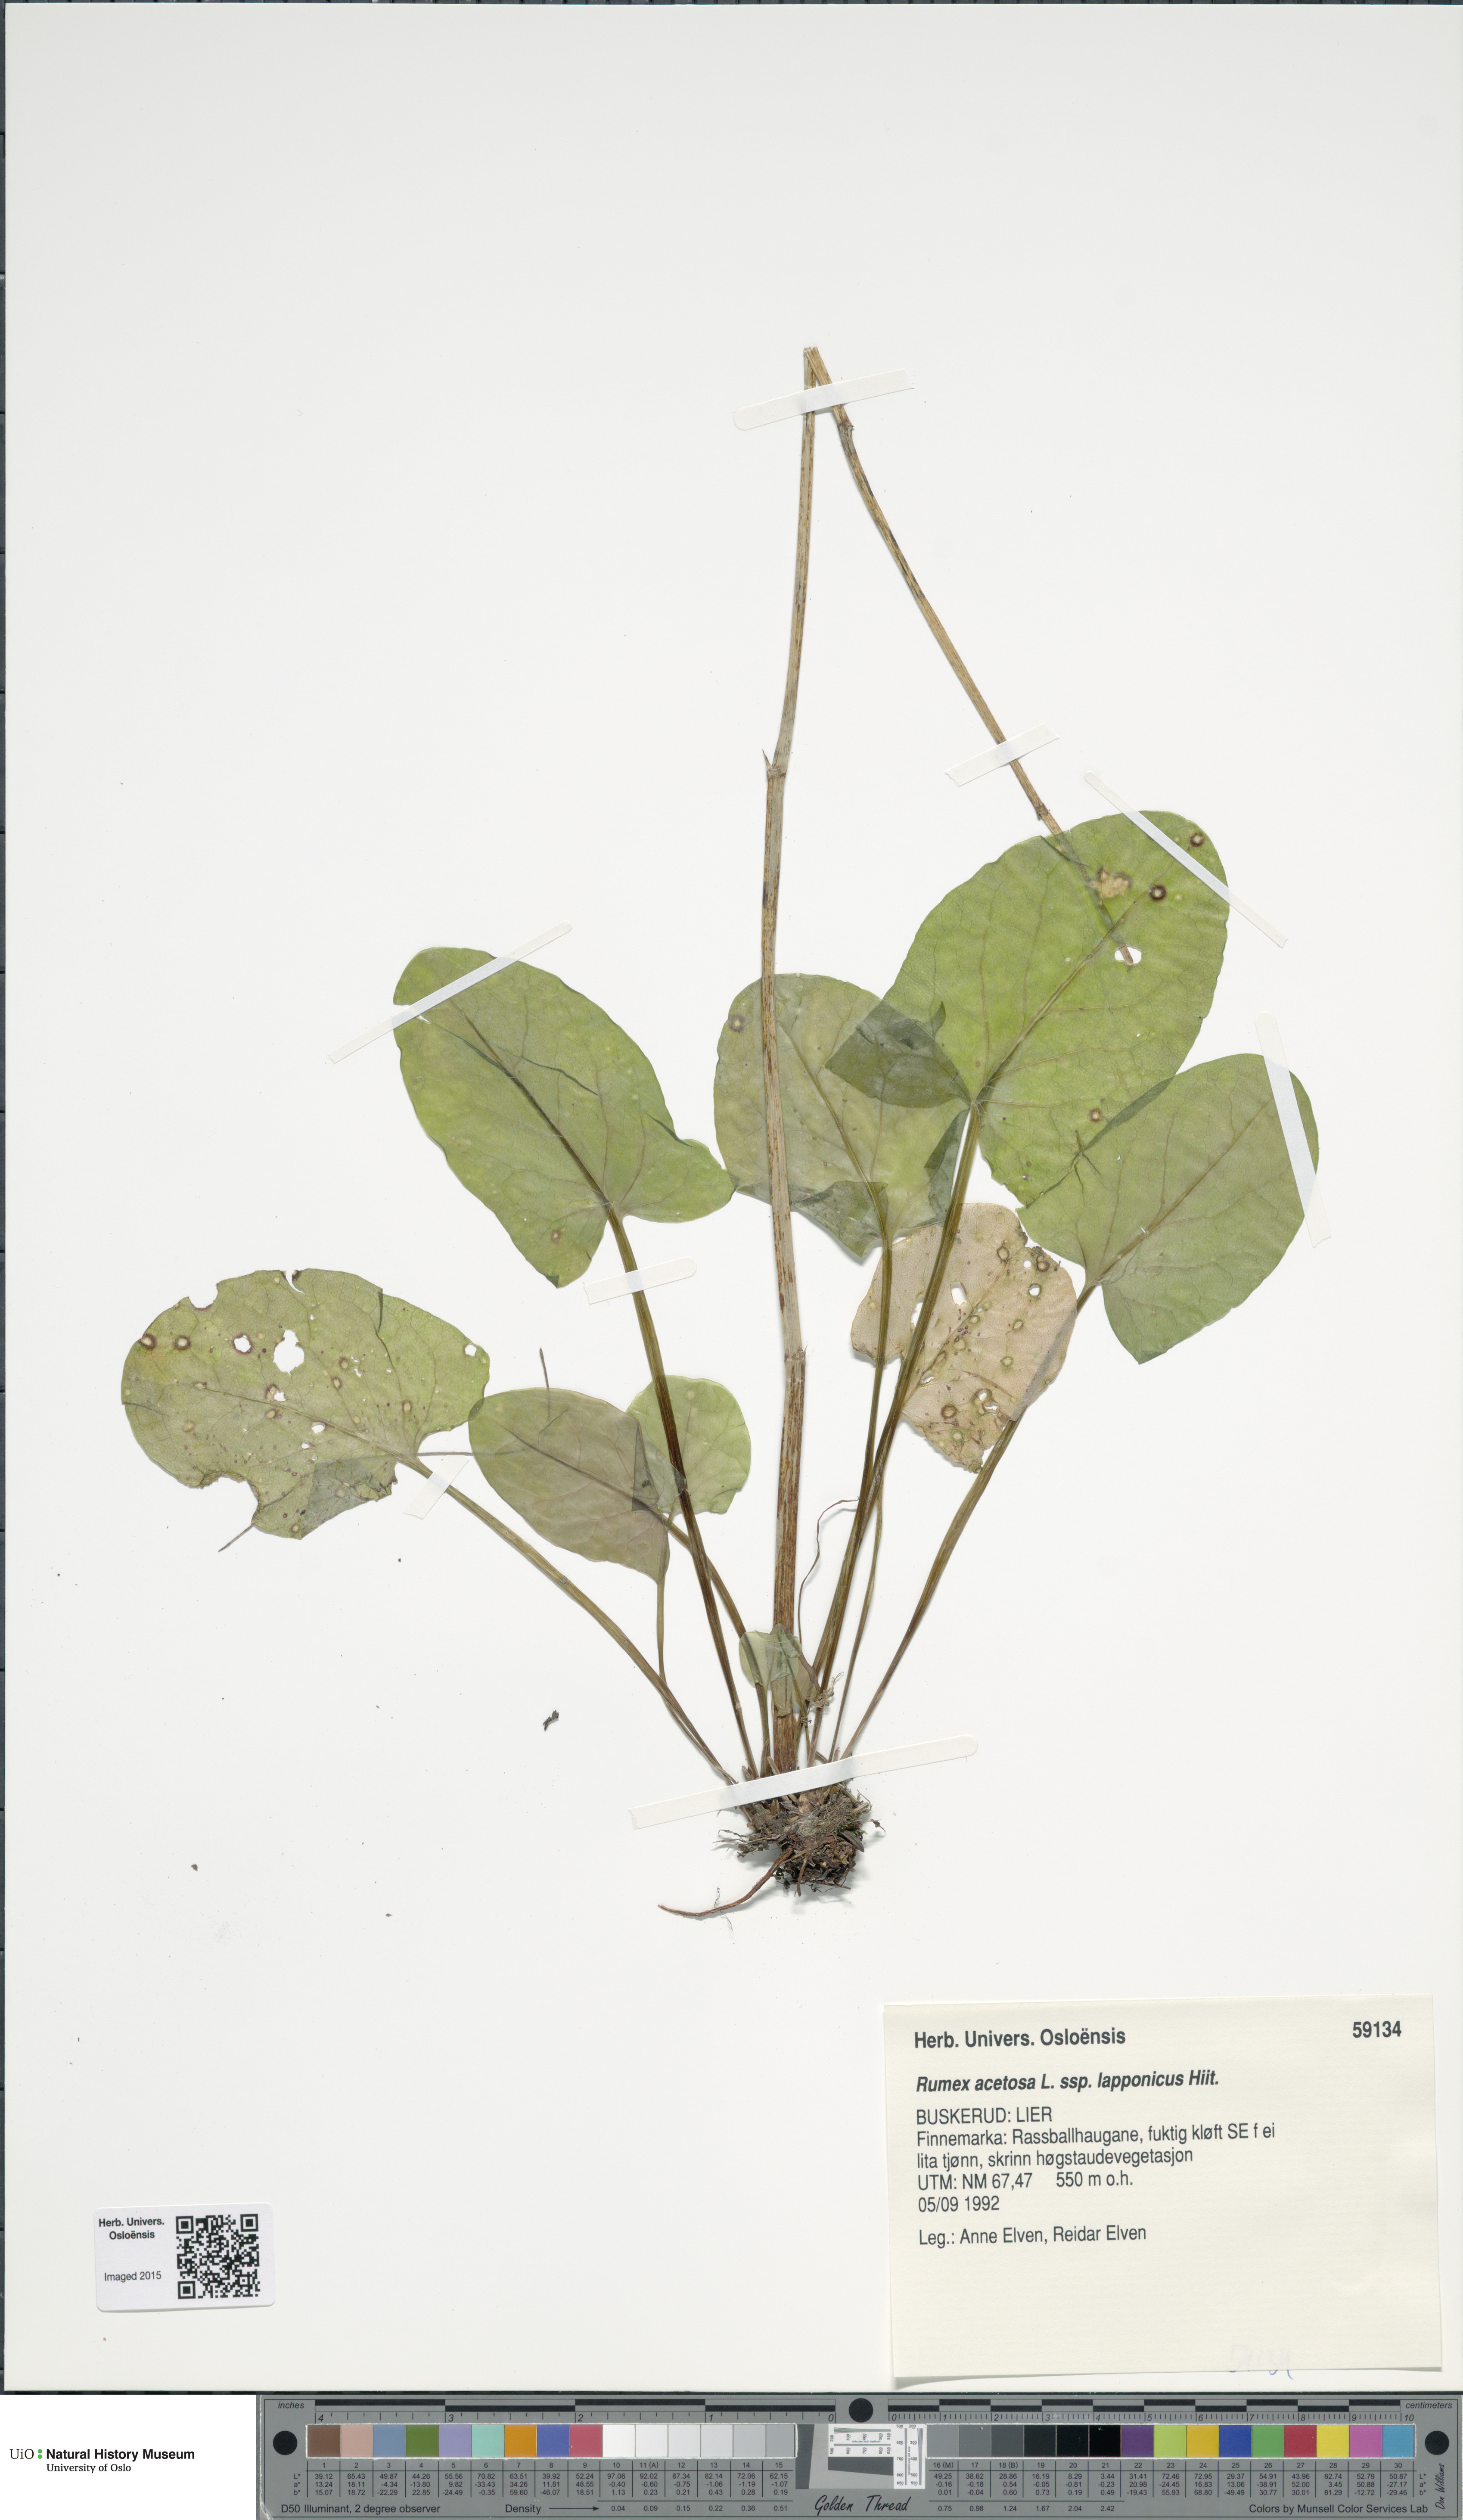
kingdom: Plantae
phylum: Tracheophyta
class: Magnoliopsida
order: Caryophyllales
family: Polygonaceae
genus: Rumex
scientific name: Rumex lapponicus
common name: Lapland mountain sorrel
